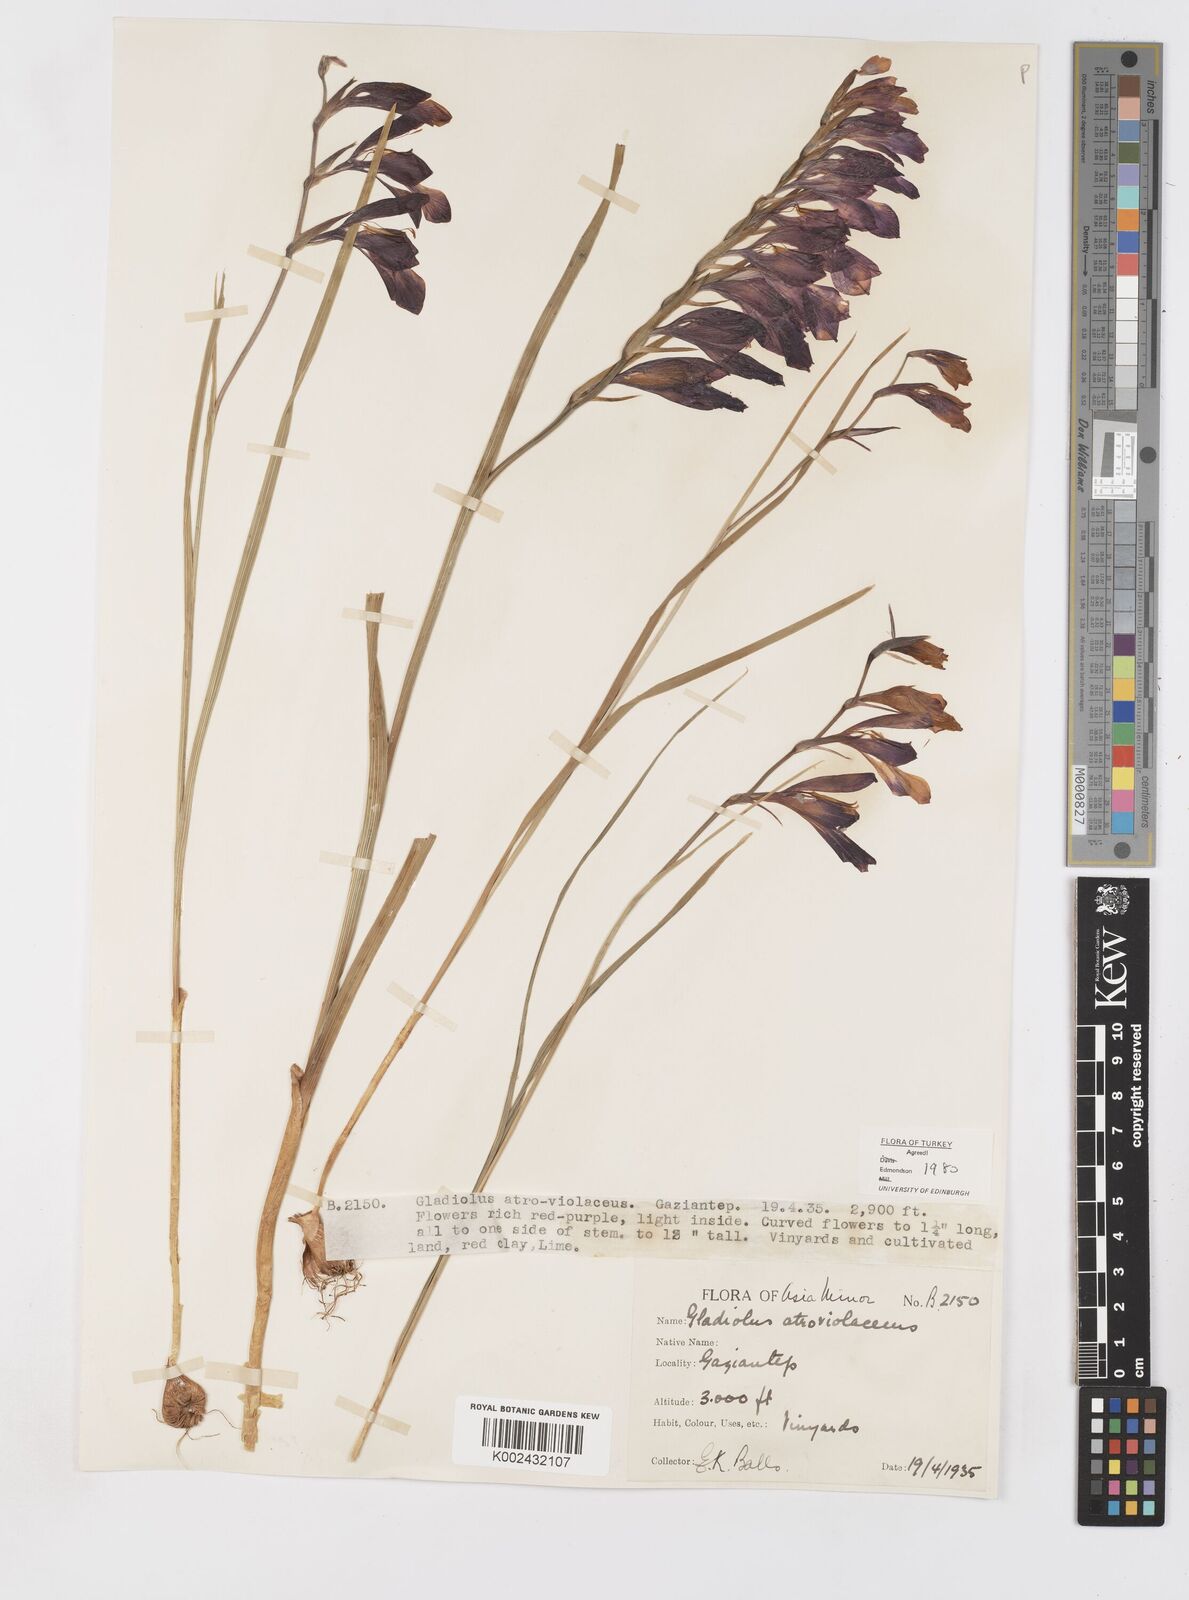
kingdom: Plantae
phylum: Tracheophyta
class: Liliopsida
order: Asparagales
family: Iridaceae
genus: Gladiolus
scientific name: Gladiolus atroviolaceus
